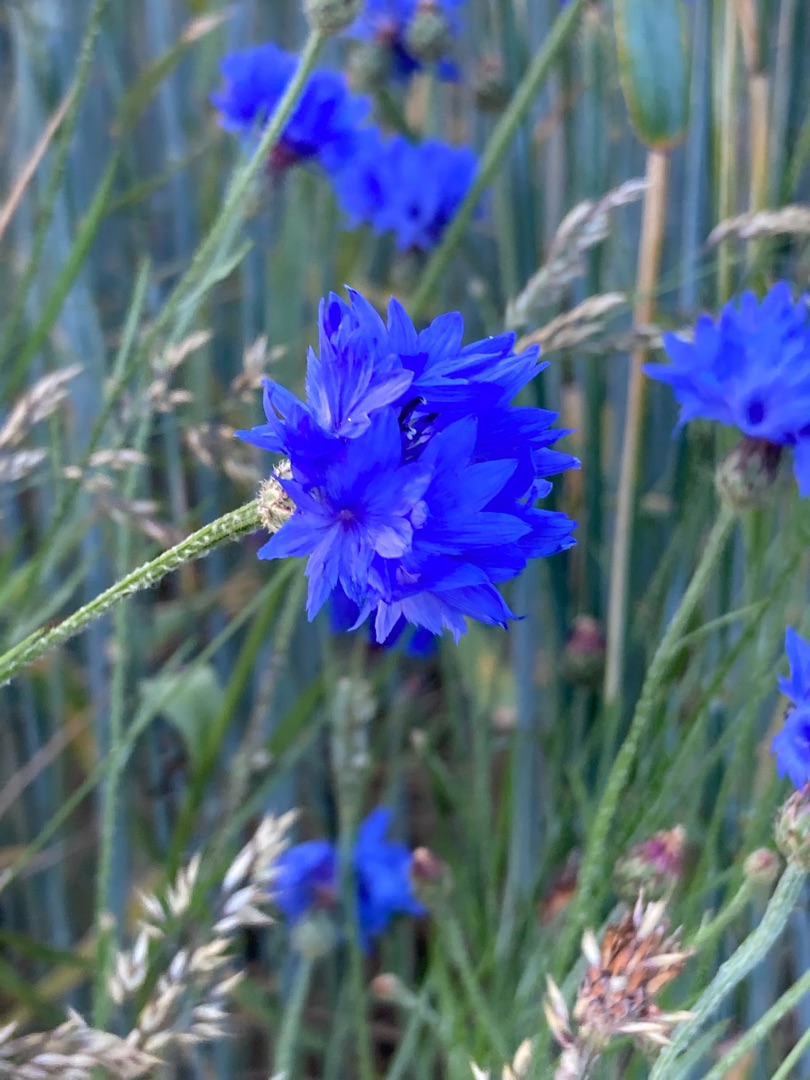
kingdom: Plantae
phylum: Tracheophyta
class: Magnoliopsida
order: Asterales
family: Asteraceae
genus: Centaurea
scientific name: Centaurea cyanus
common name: Kornblomst
